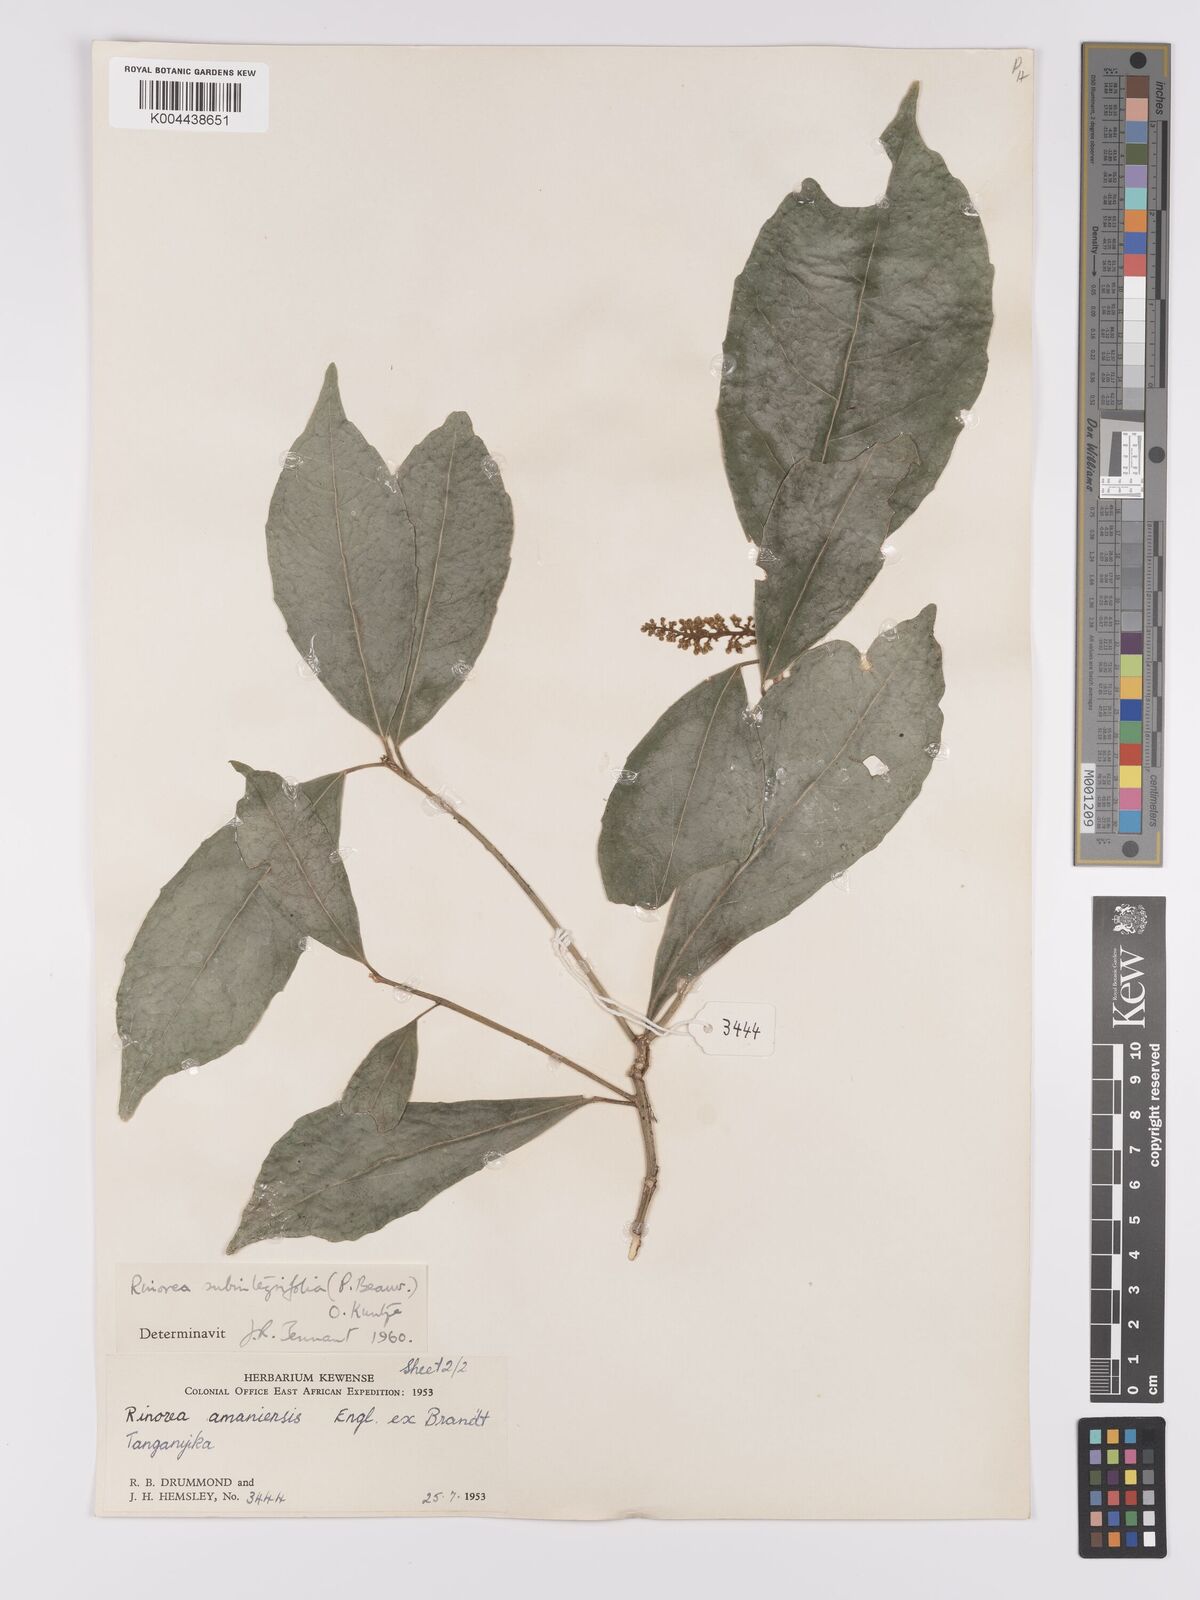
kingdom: Plantae
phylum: Tracheophyta
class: Magnoliopsida
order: Apiales
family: Pittosporaceae
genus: Marianthus
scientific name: Marianthus coeruleopunctatus
